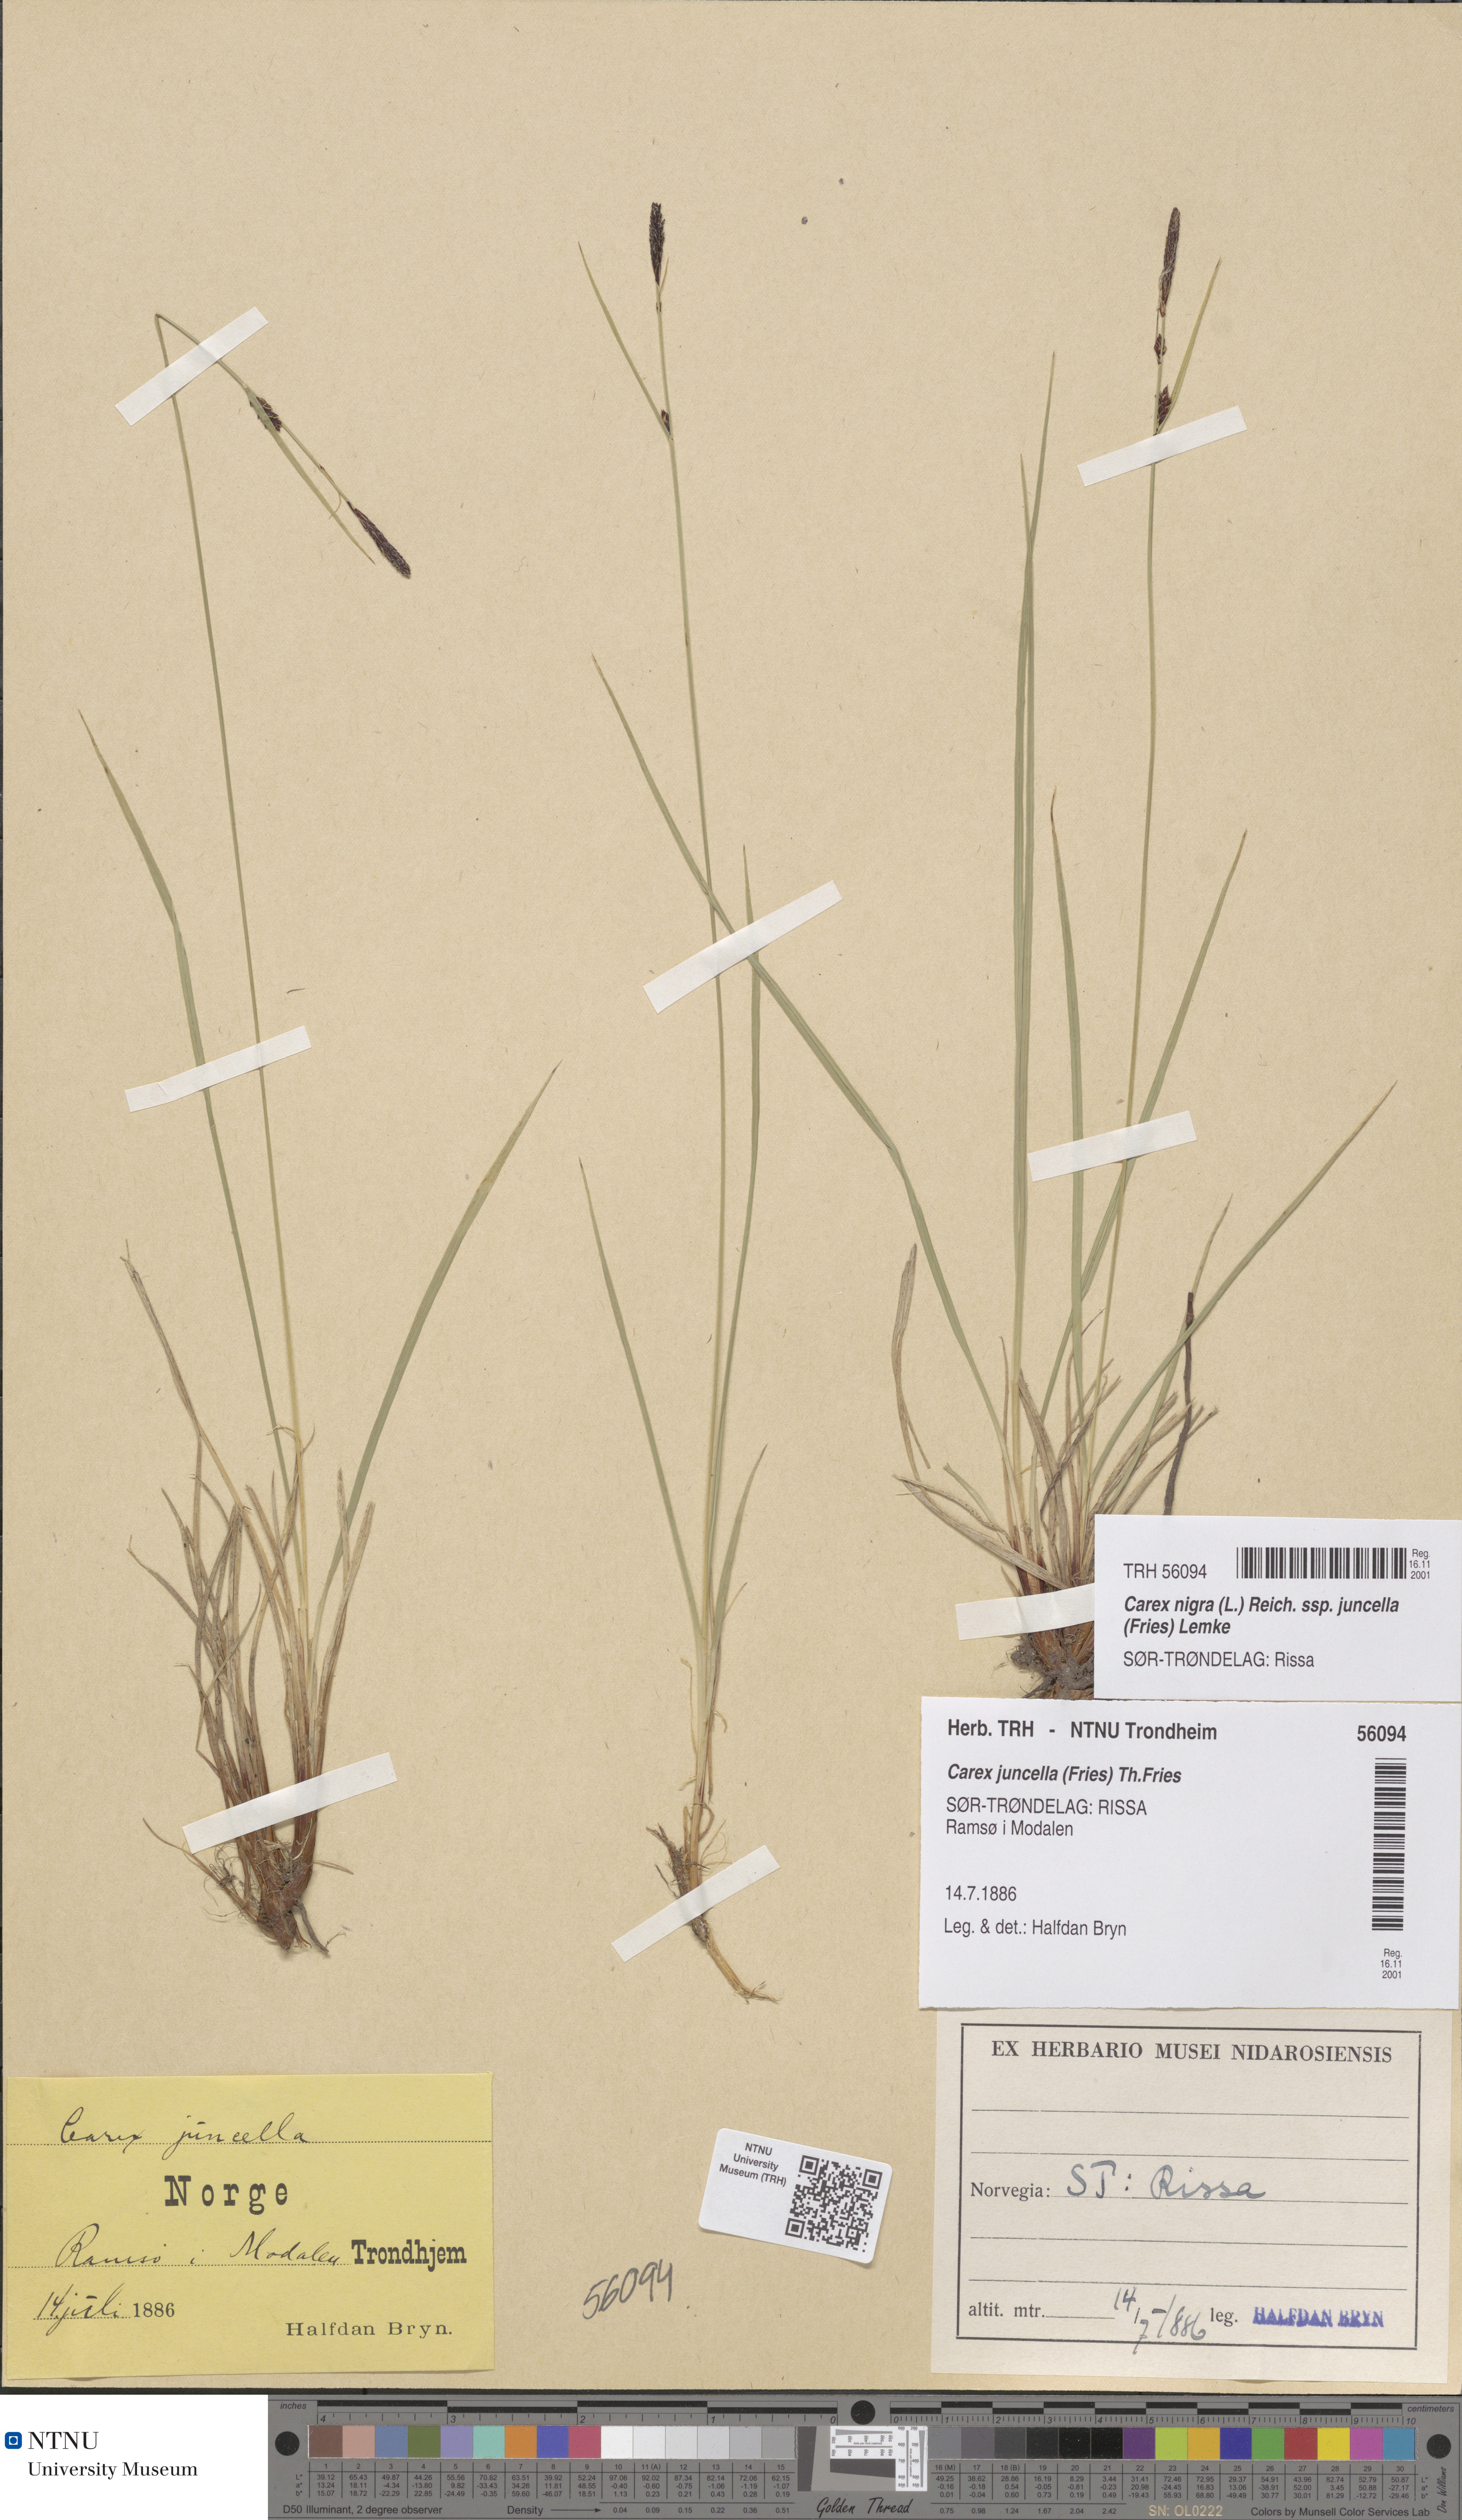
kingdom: Plantae
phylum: Tracheophyta
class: Liliopsida
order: Poales
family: Cyperaceae
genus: Carex
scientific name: Carex nigra
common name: Common sedge
